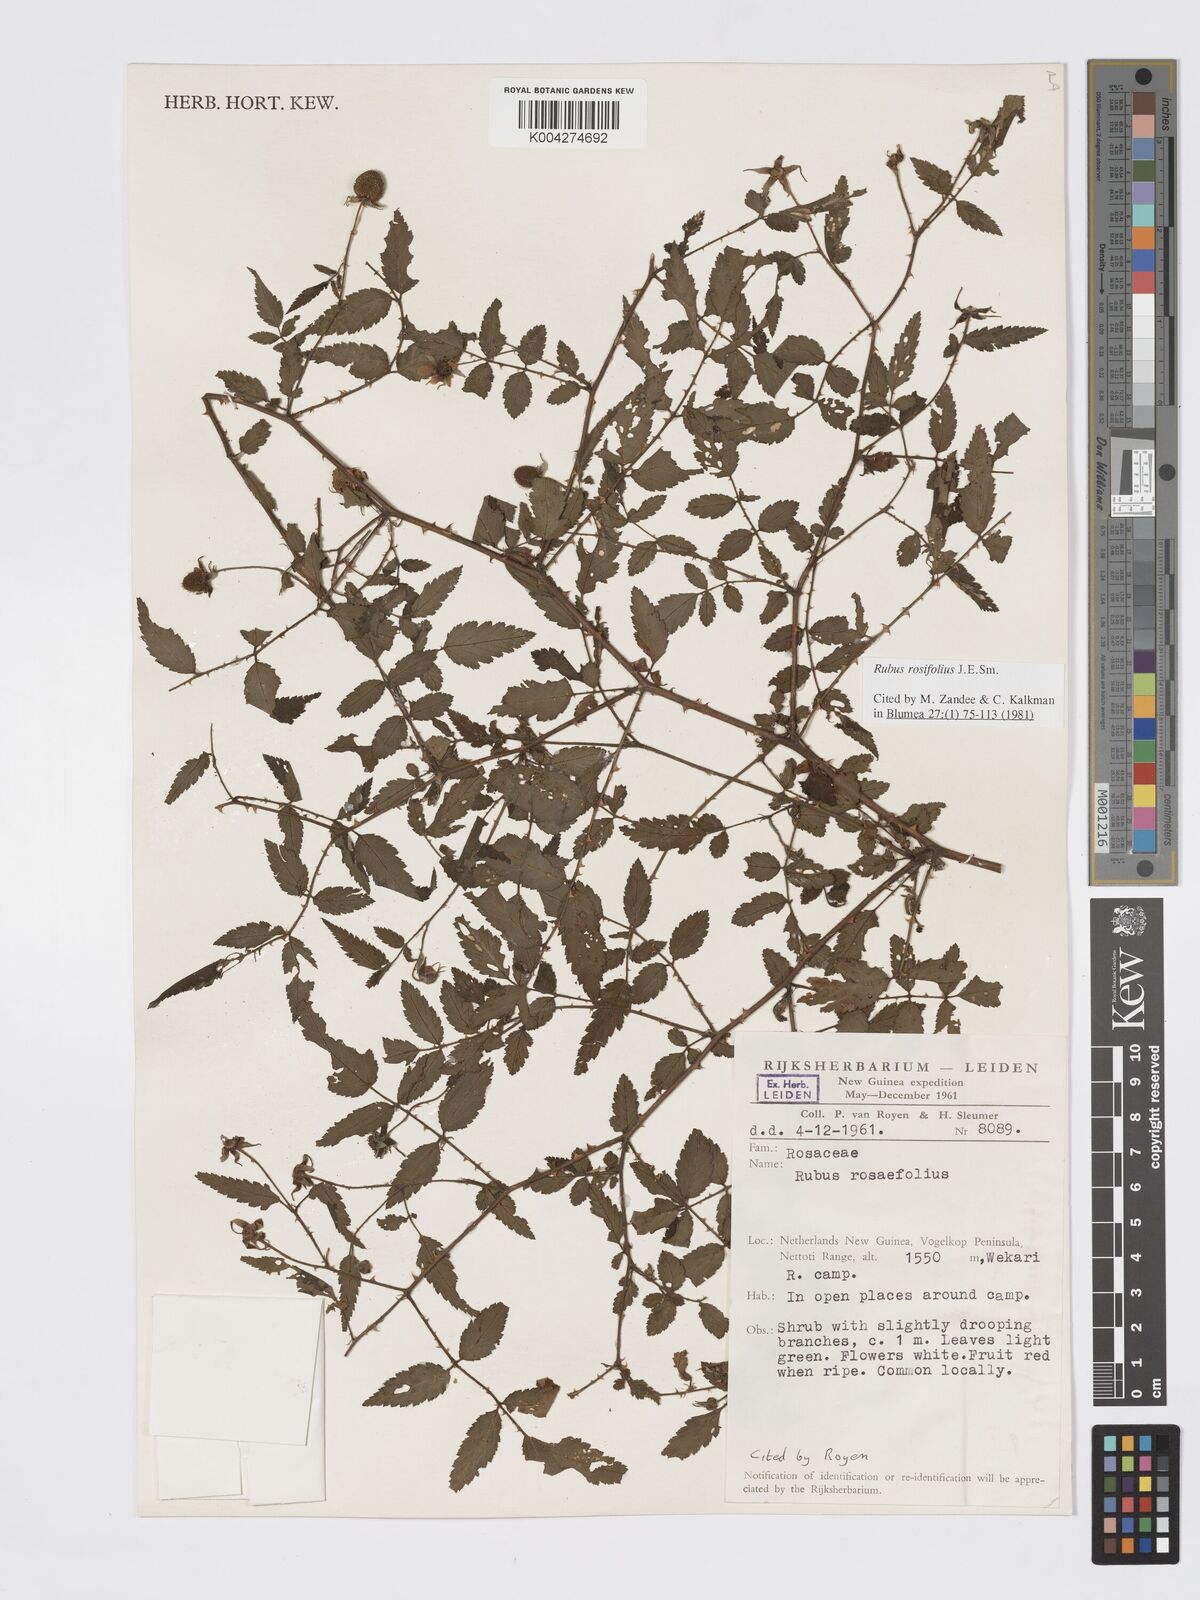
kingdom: Plantae
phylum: Tracheophyta
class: Magnoliopsida
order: Rosales
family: Rosaceae
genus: Rubus
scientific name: Rubus
